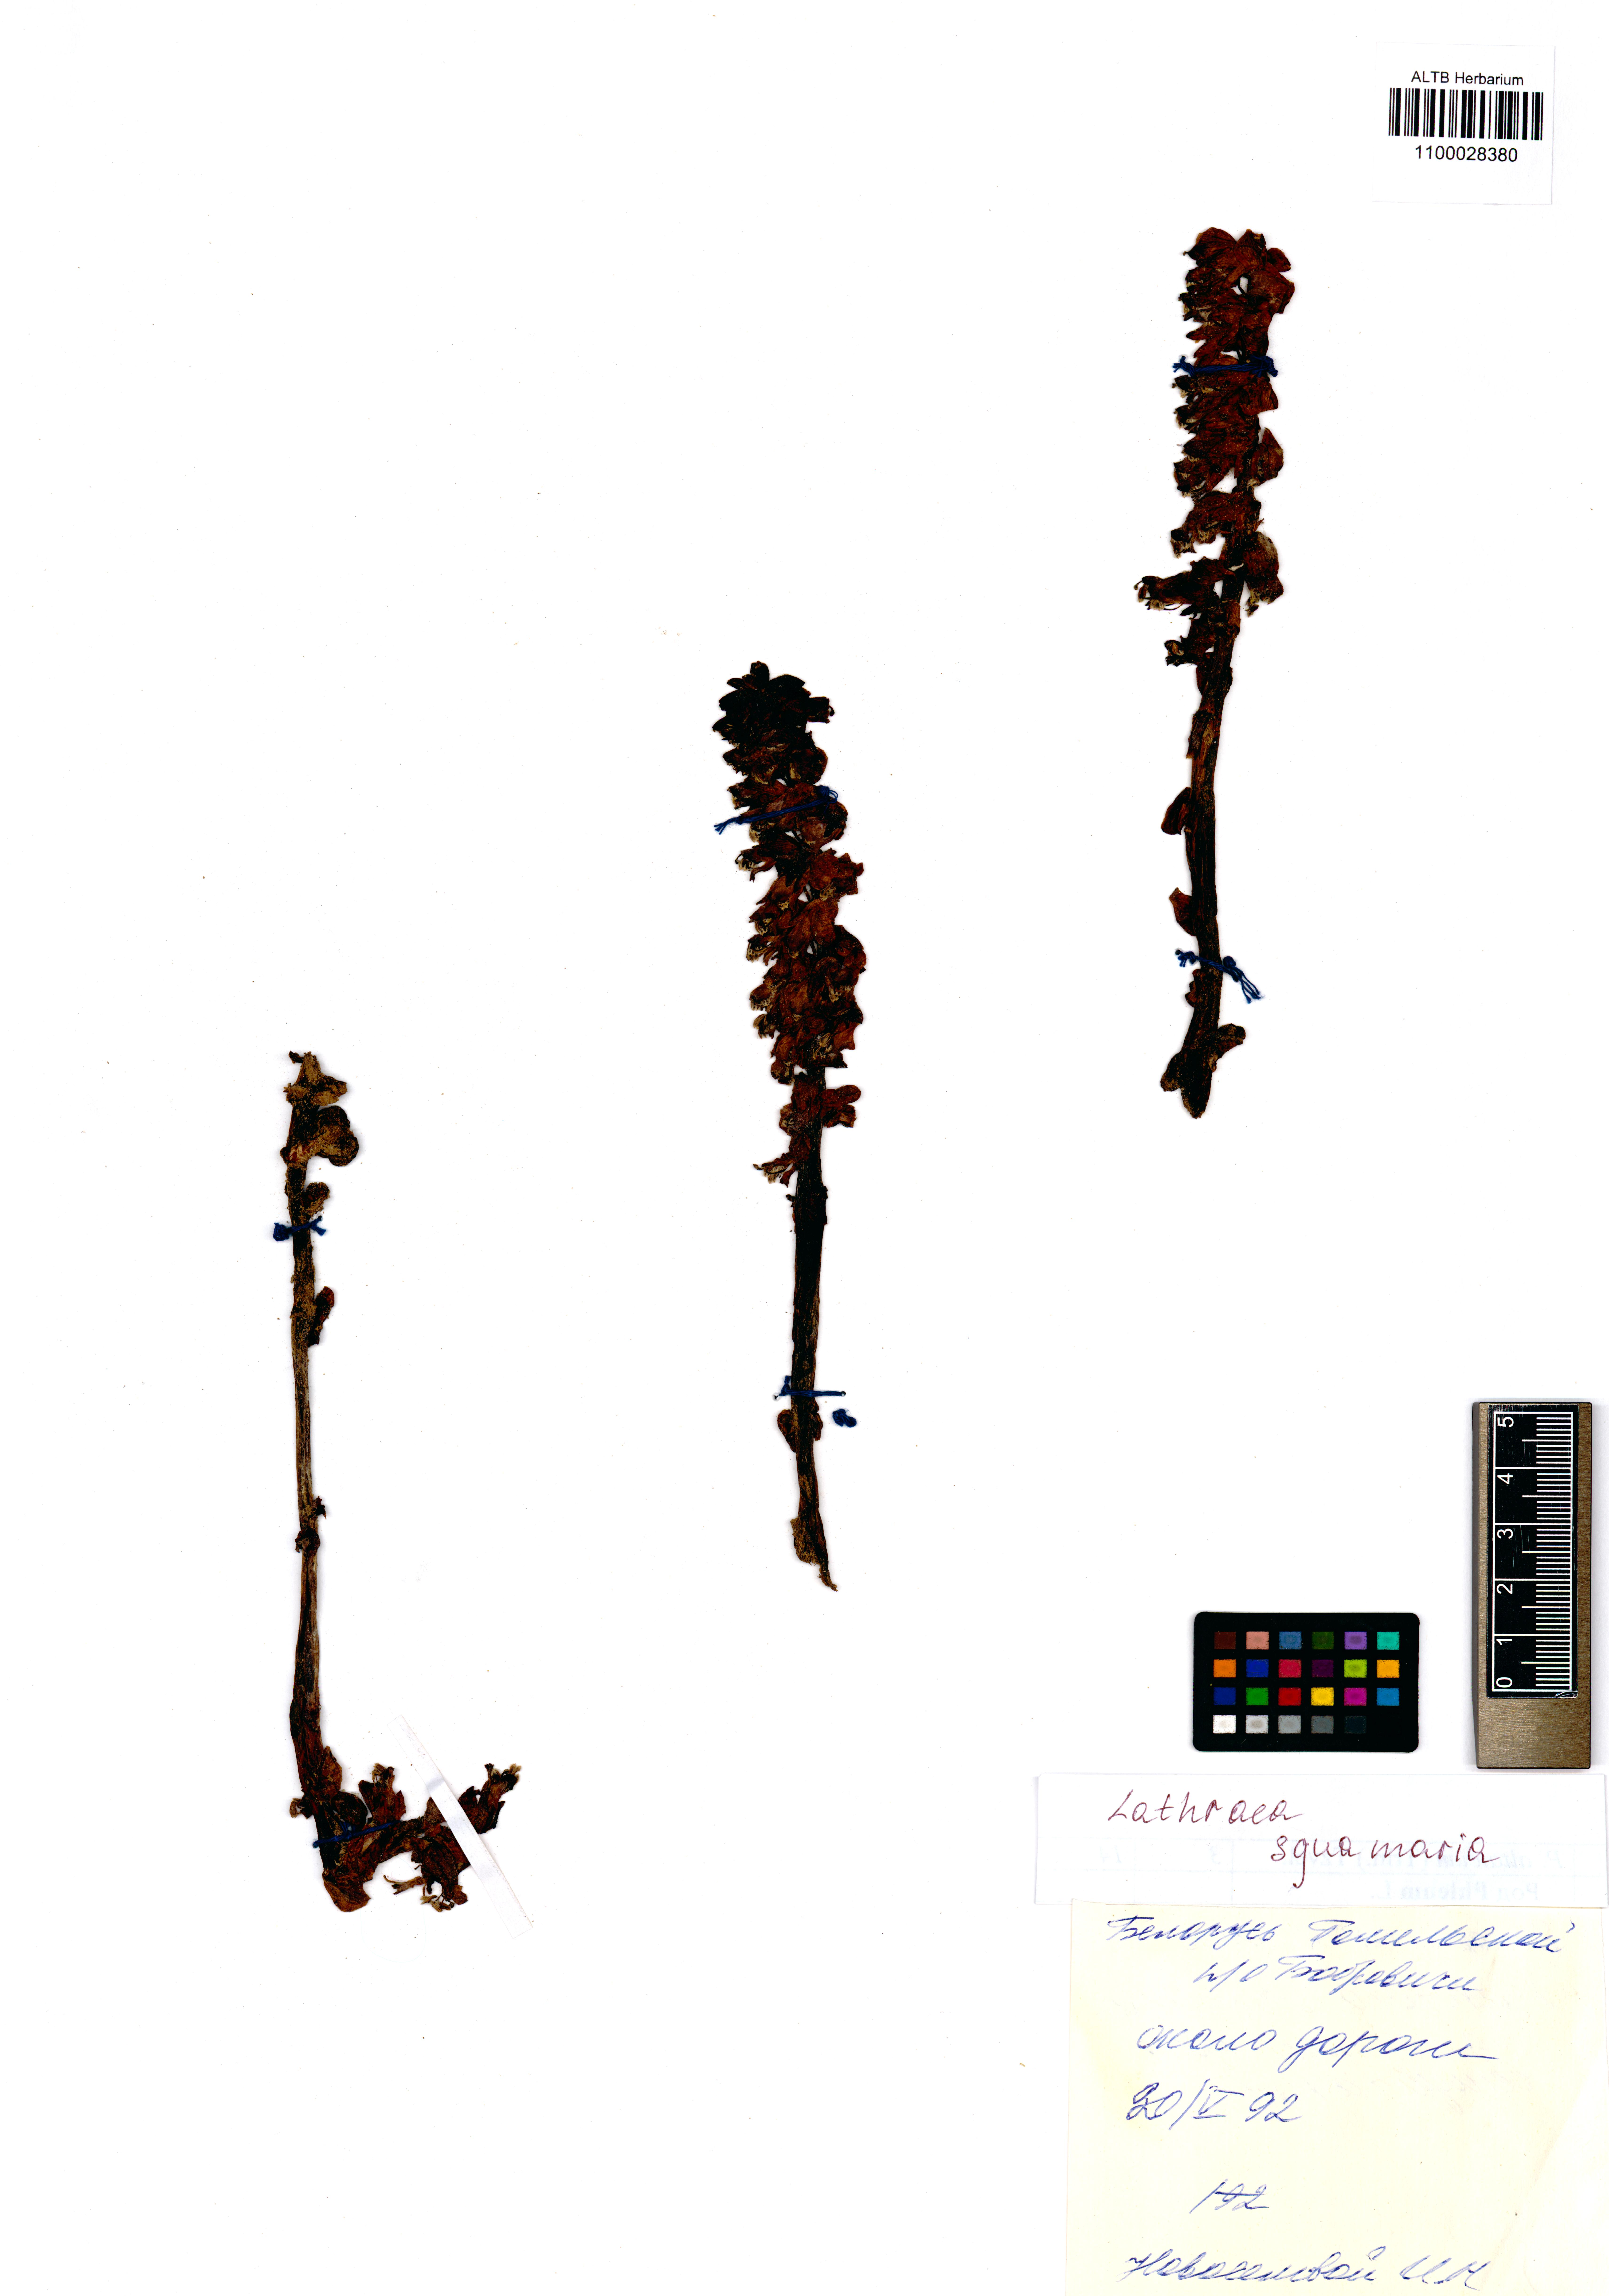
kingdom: Plantae
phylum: Tracheophyta
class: Magnoliopsida
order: Lamiales
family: Orobanchaceae
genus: Lathraea
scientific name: Lathraea squamaria
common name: Toothwort
